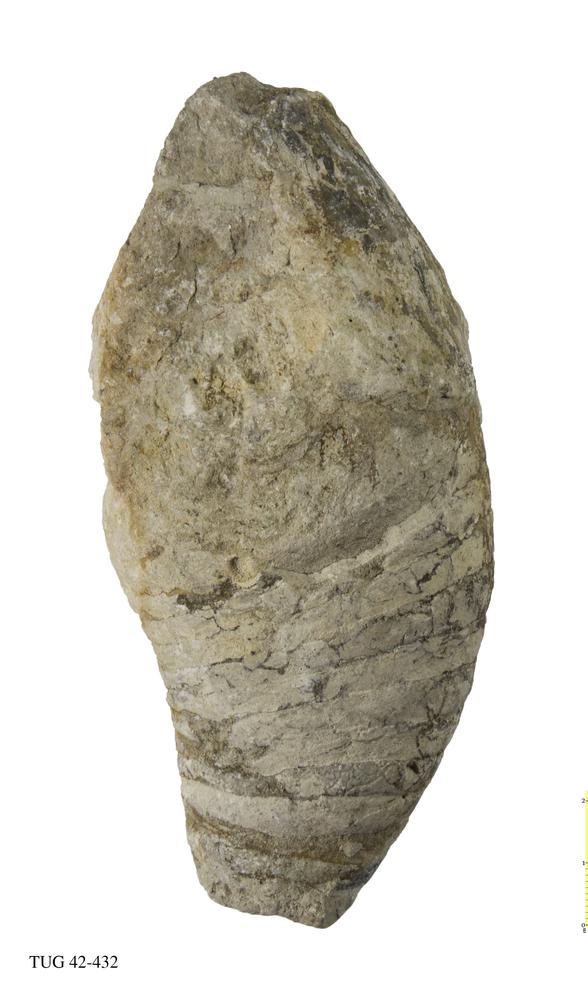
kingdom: Animalia
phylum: Mollusca
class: Cephalopoda
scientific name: Cephalopoda
